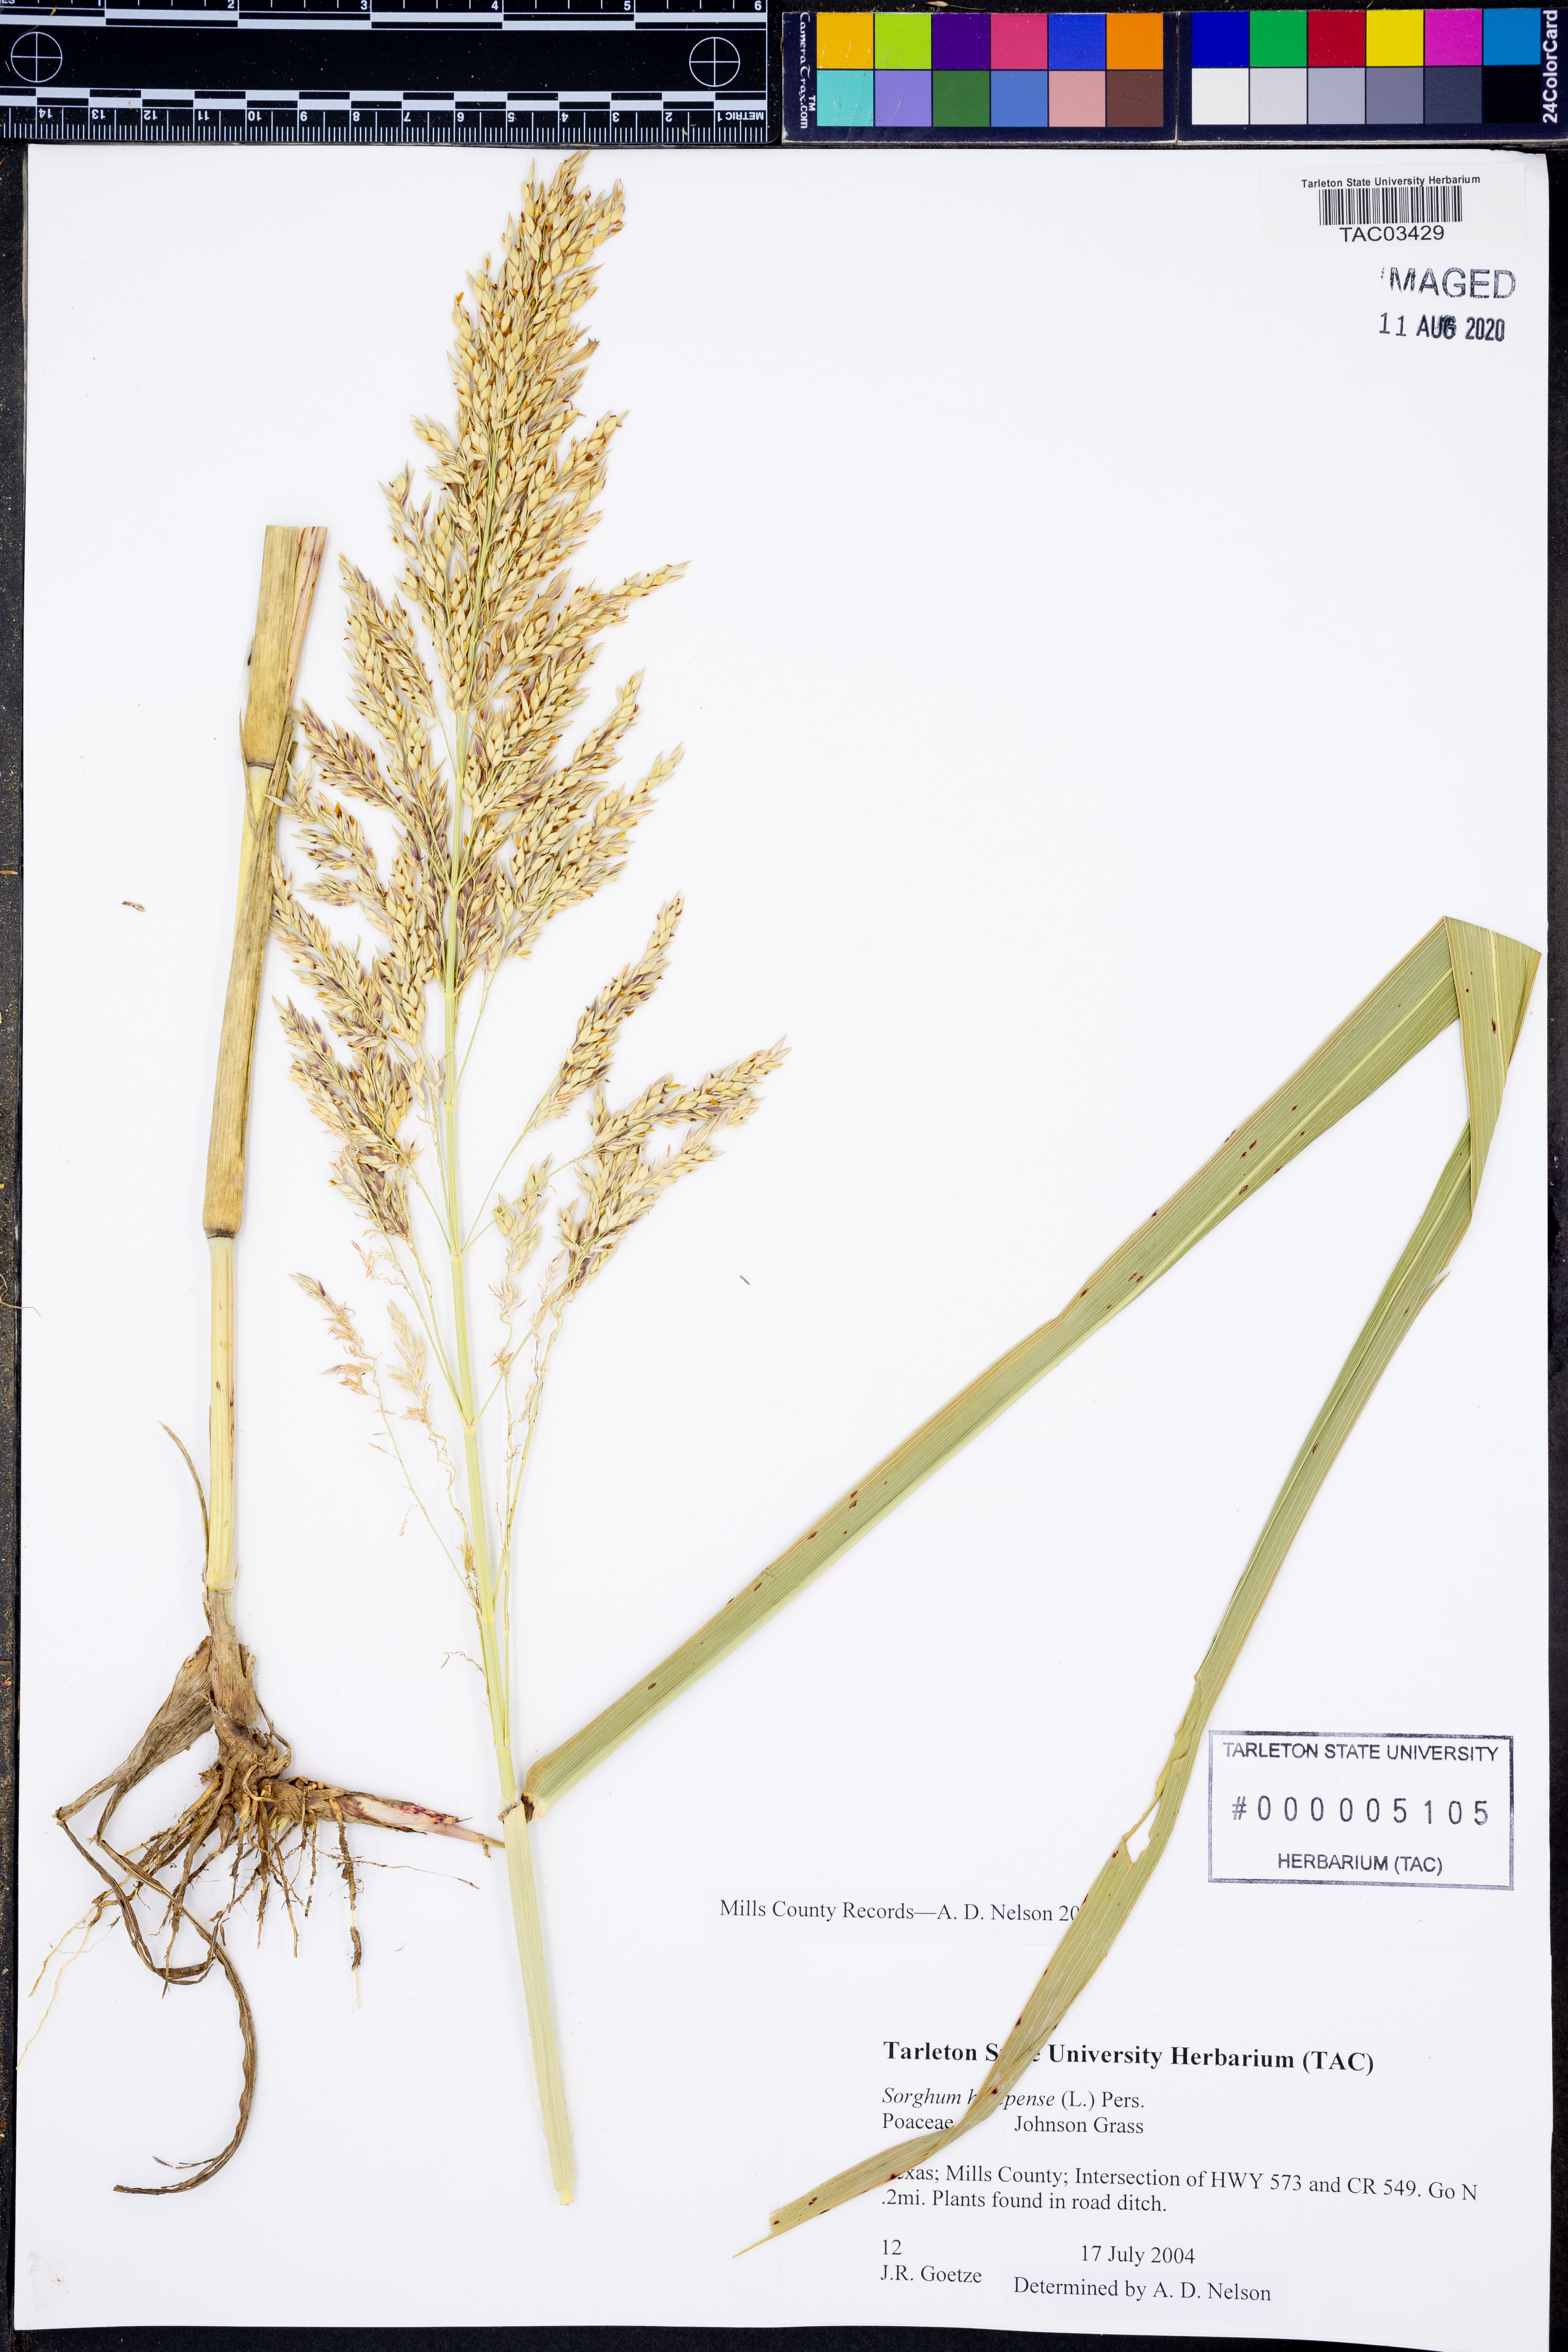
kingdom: Plantae
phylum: Tracheophyta
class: Liliopsida
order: Poales
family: Poaceae
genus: Sorghum
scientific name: Sorghum halepense
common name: Johnson-grass
